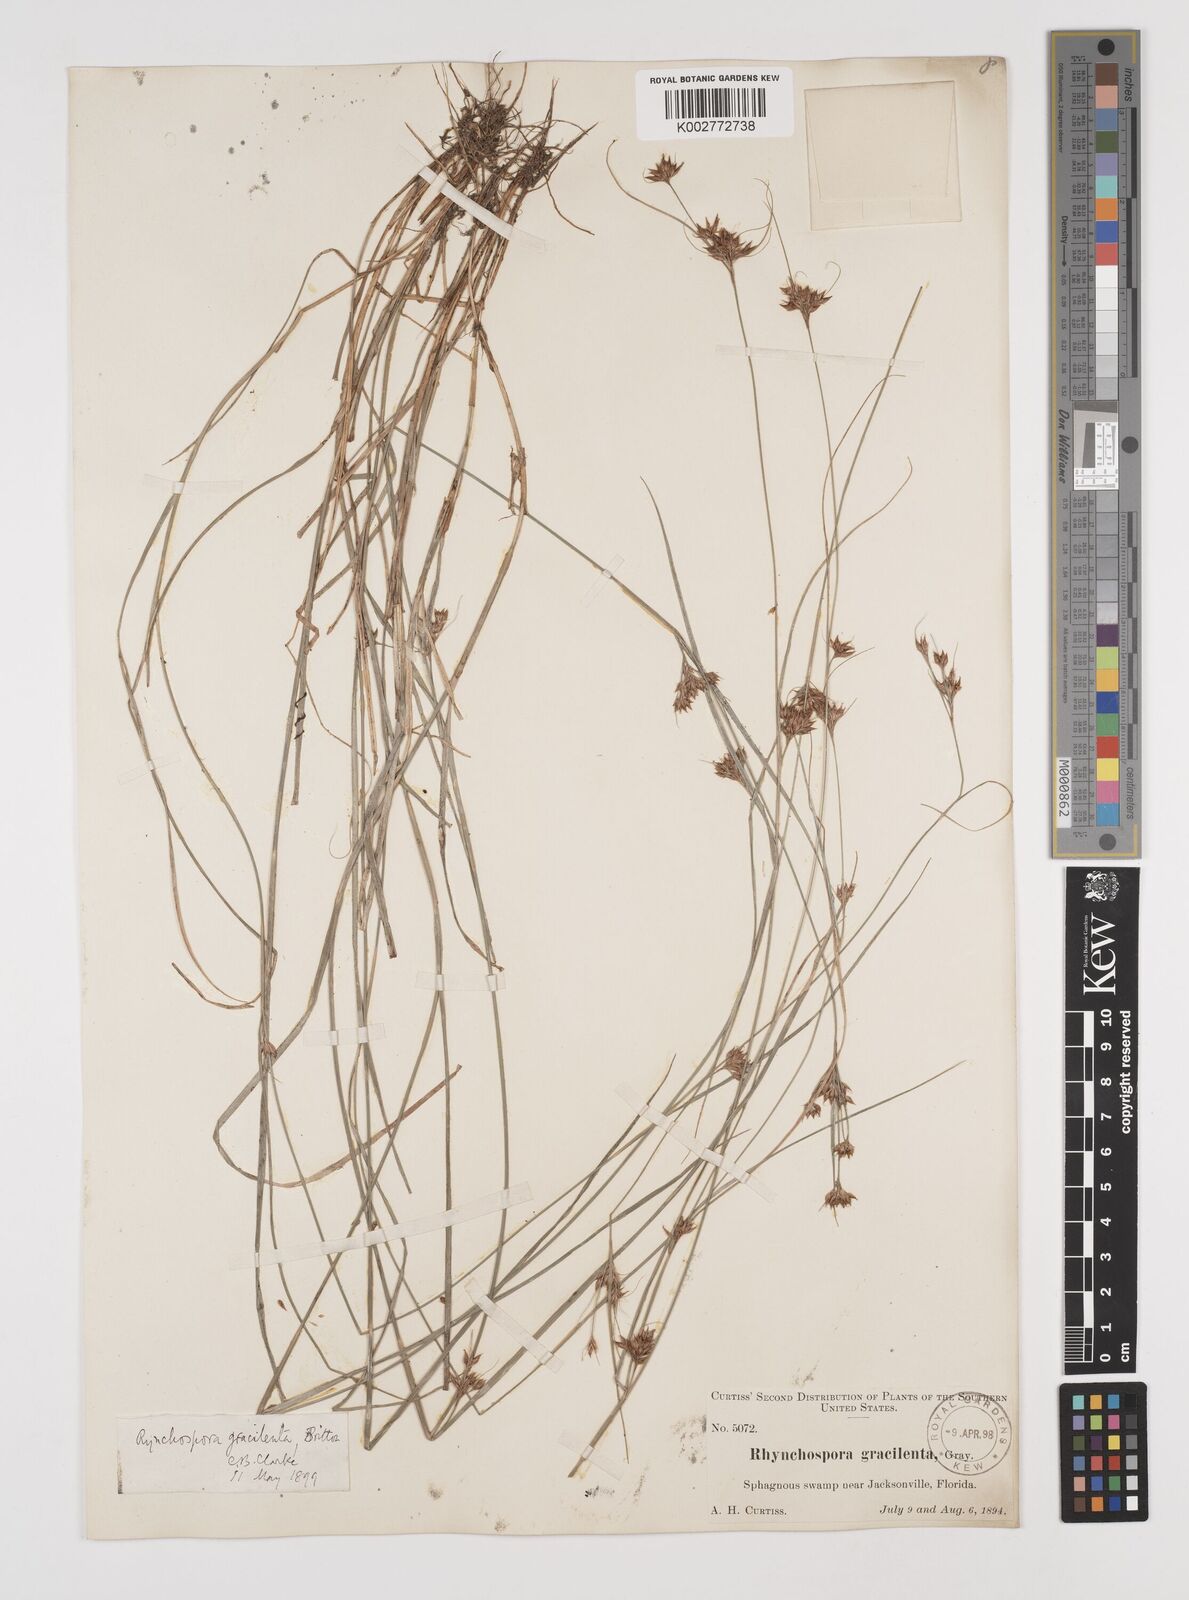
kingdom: Plantae
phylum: Tracheophyta
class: Liliopsida
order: Poales
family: Cyperaceae
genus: Rhynchospora
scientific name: Rhynchospora gracilenta
